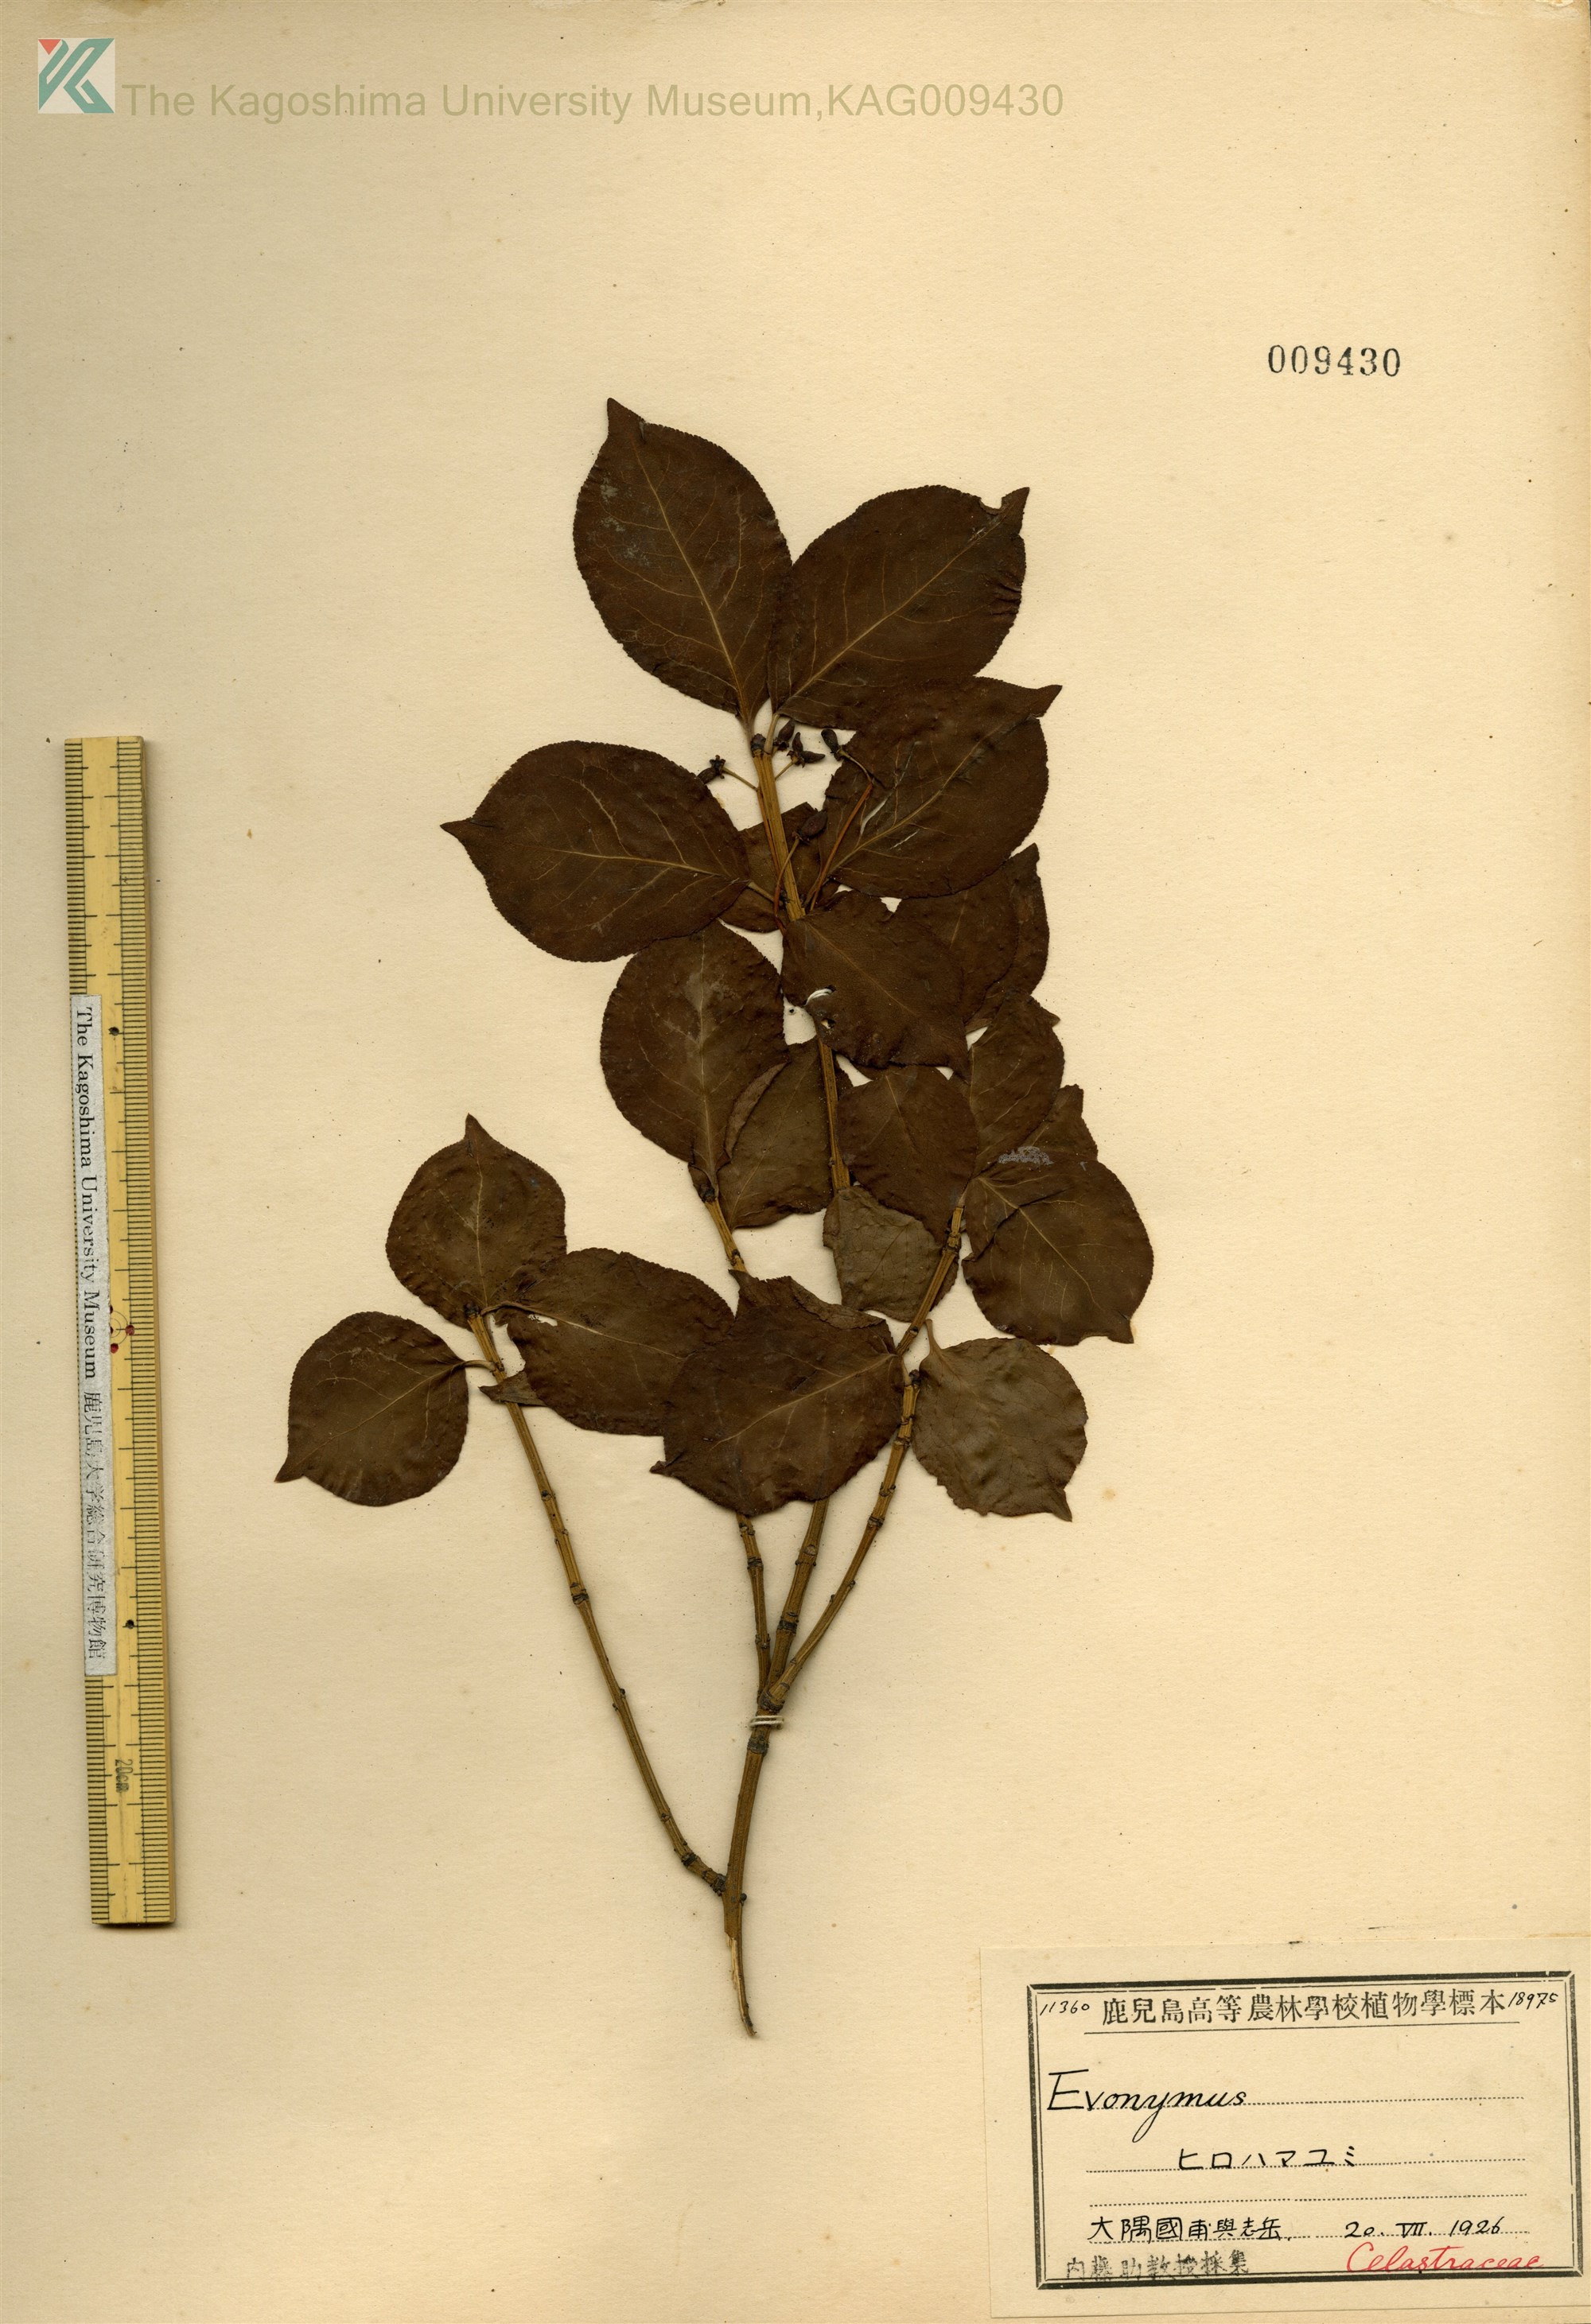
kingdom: Plantae
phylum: Tracheophyta
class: Magnoliopsida
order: Celastrales
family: Celastraceae
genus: Euonymus
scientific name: Euonymus alatus
